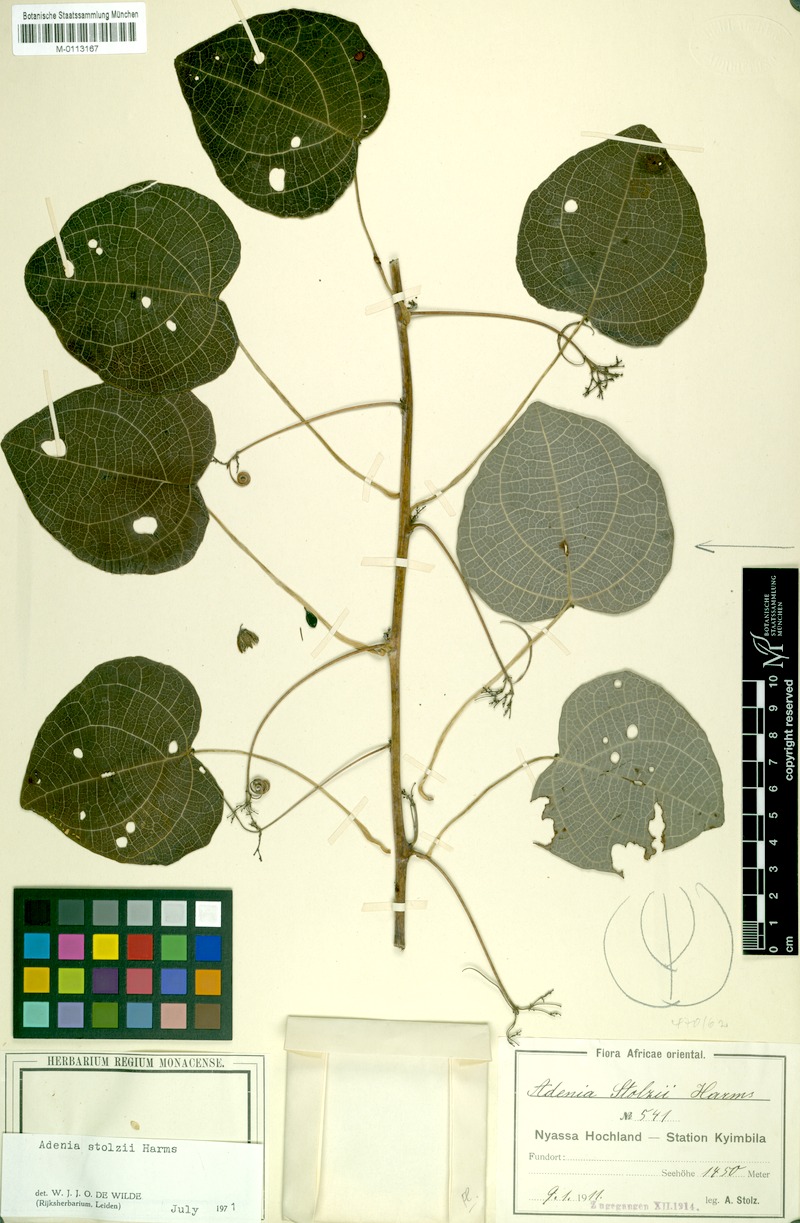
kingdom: Plantae
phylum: Tracheophyta
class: Magnoliopsida
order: Malpighiales
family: Passifloraceae
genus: Adenia
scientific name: Adenia stolzii
